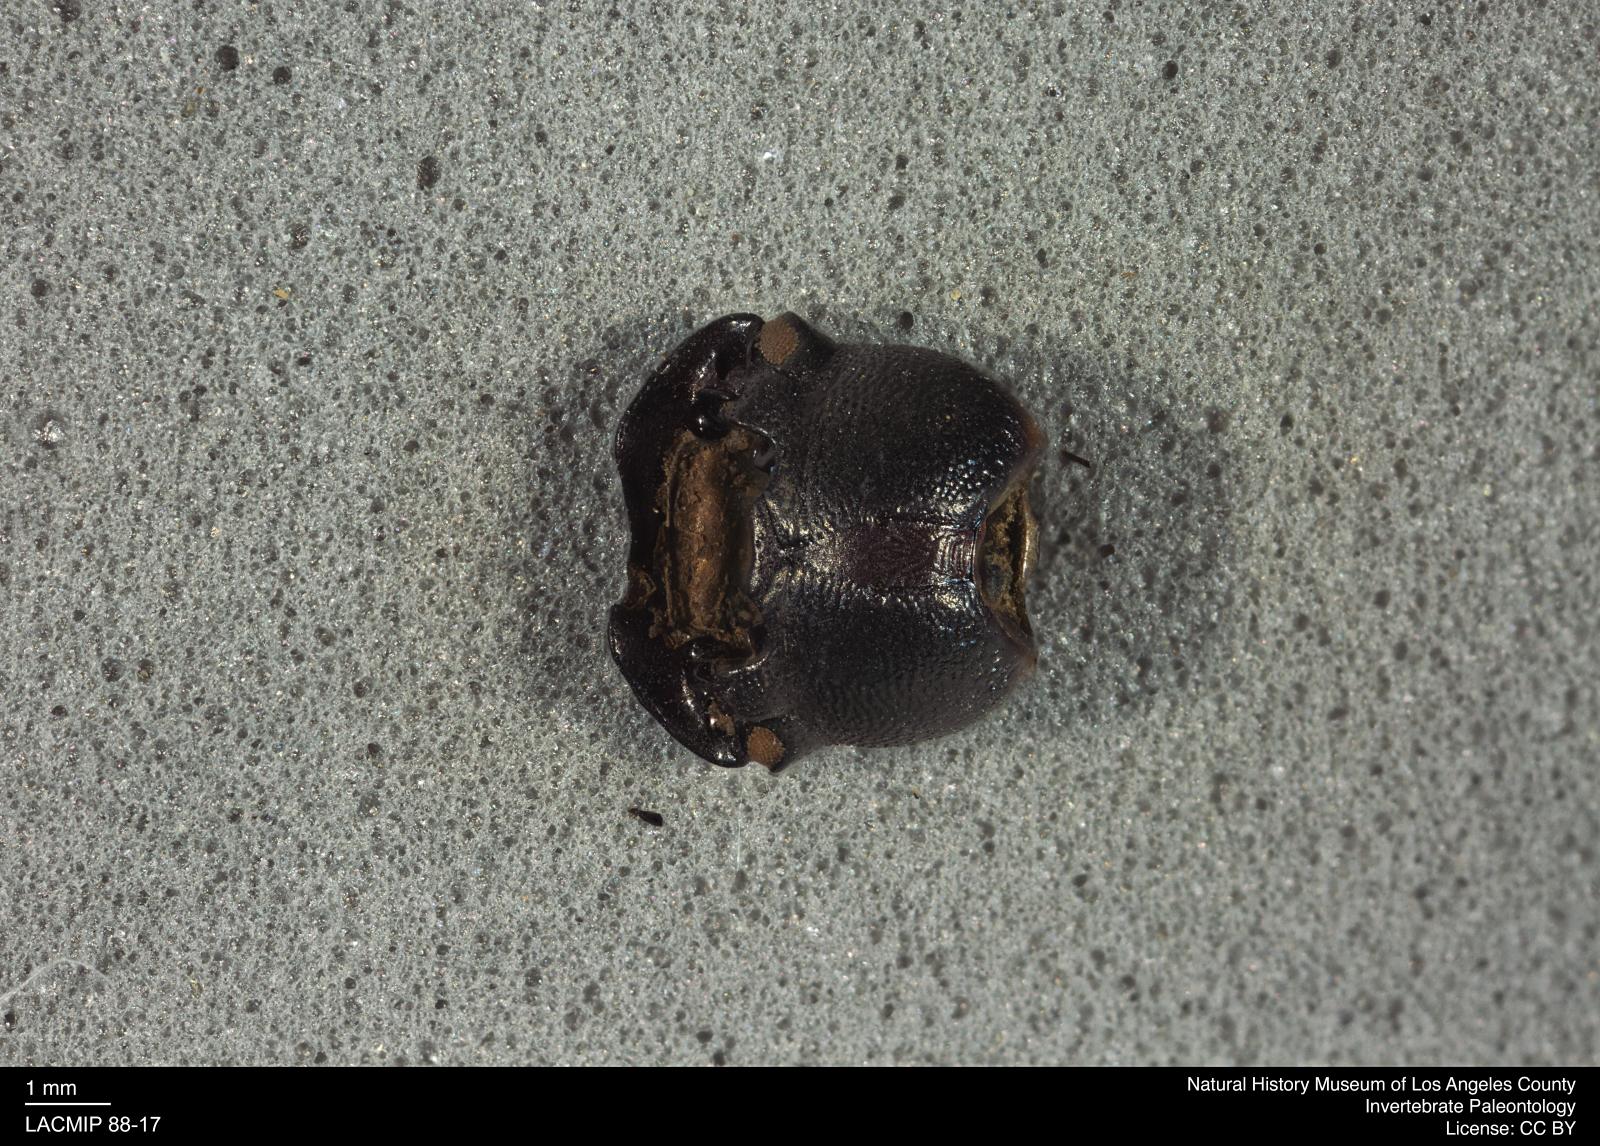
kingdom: Animalia
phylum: Arthropoda
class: Insecta
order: Coleoptera
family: Tenebrionidae
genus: Coniontis
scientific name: Coniontis abdominalis
